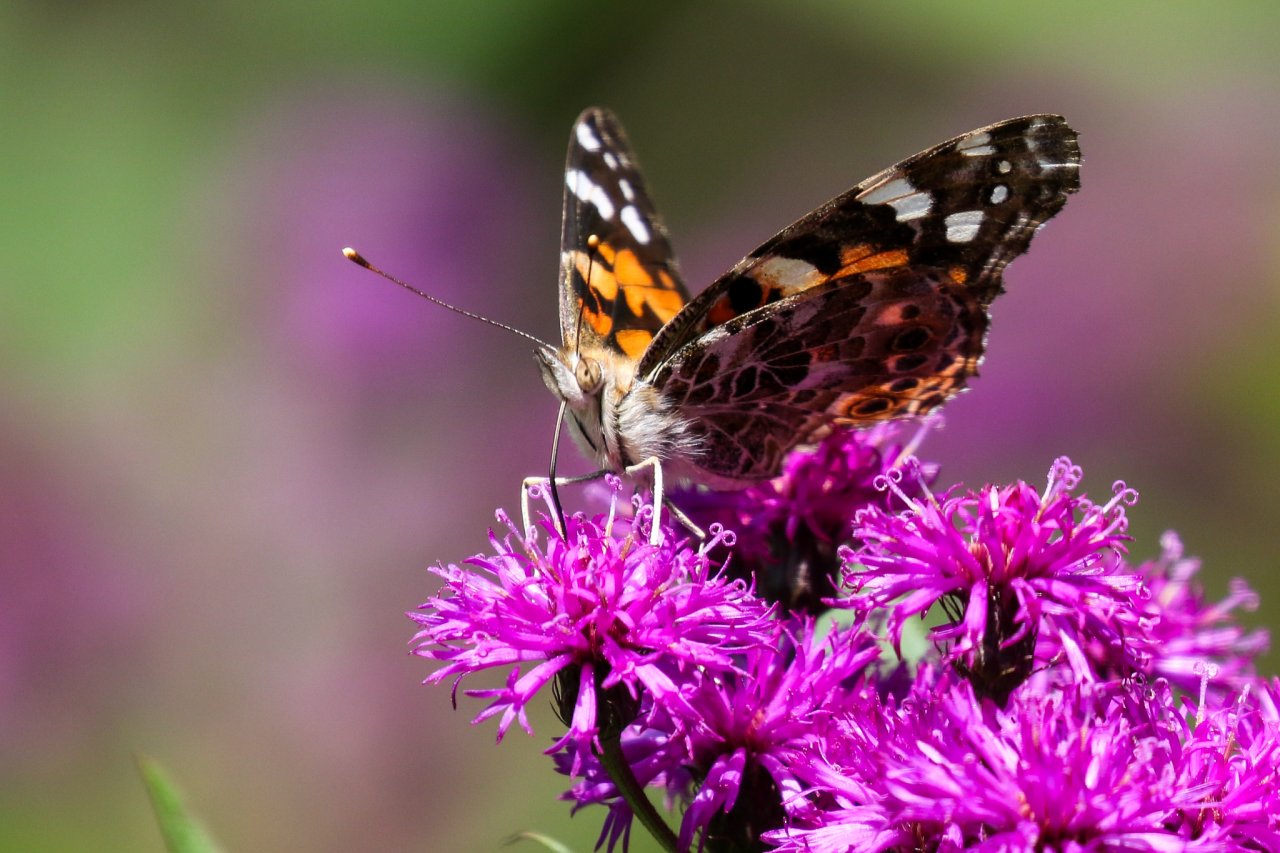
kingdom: Animalia
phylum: Arthropoda
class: Insecta
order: Lepidoptera
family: Nymphalidae
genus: Vanessa
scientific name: Vanessa cardui
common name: Painted Lady
